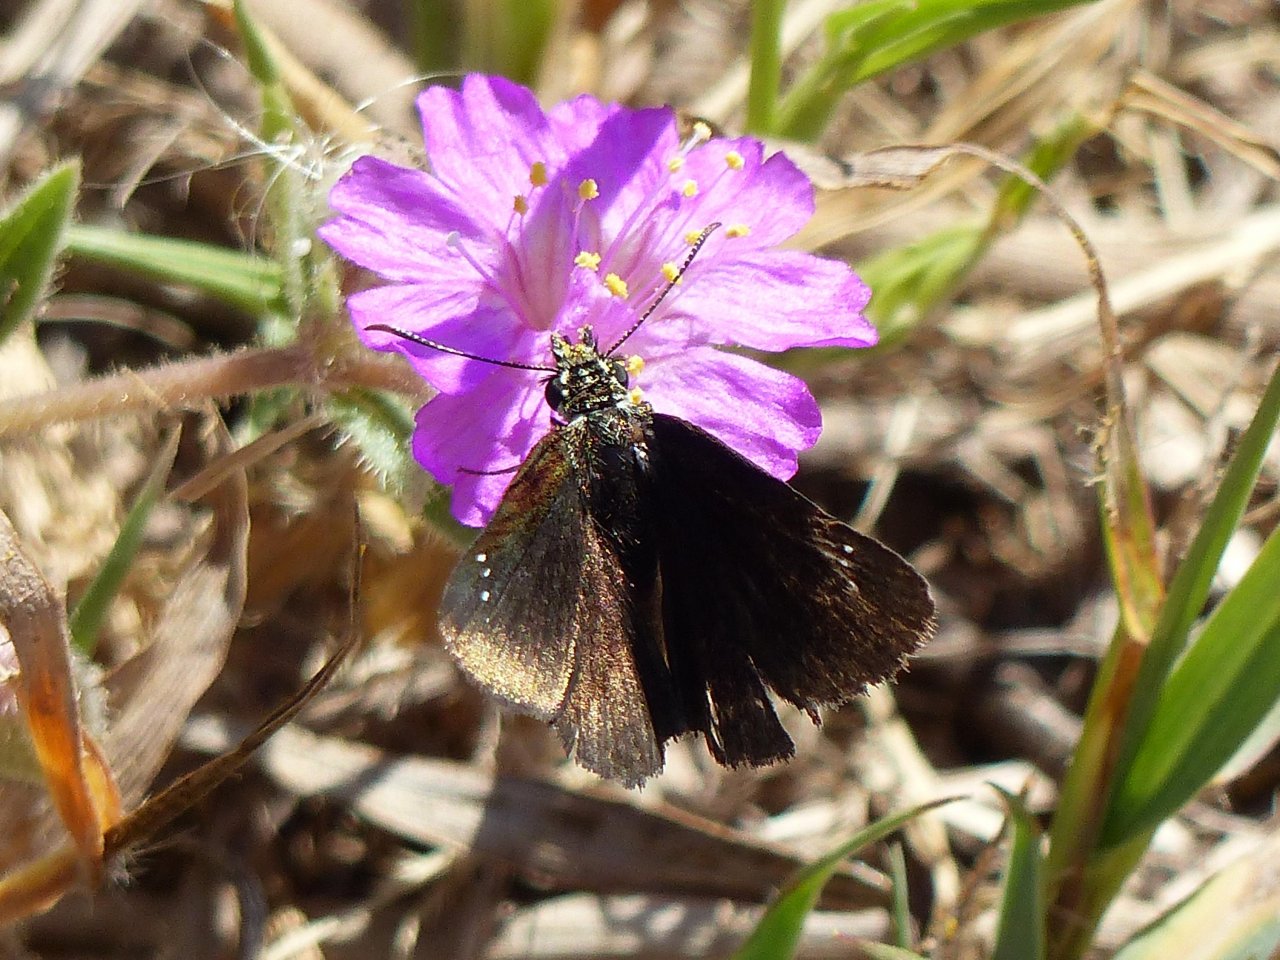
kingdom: Animalia
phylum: Arthropoda
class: Insecta
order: Lepidoptera
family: Hesperiidae
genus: Pholisora
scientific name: Pholisora catullus
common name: Common Sootywing
